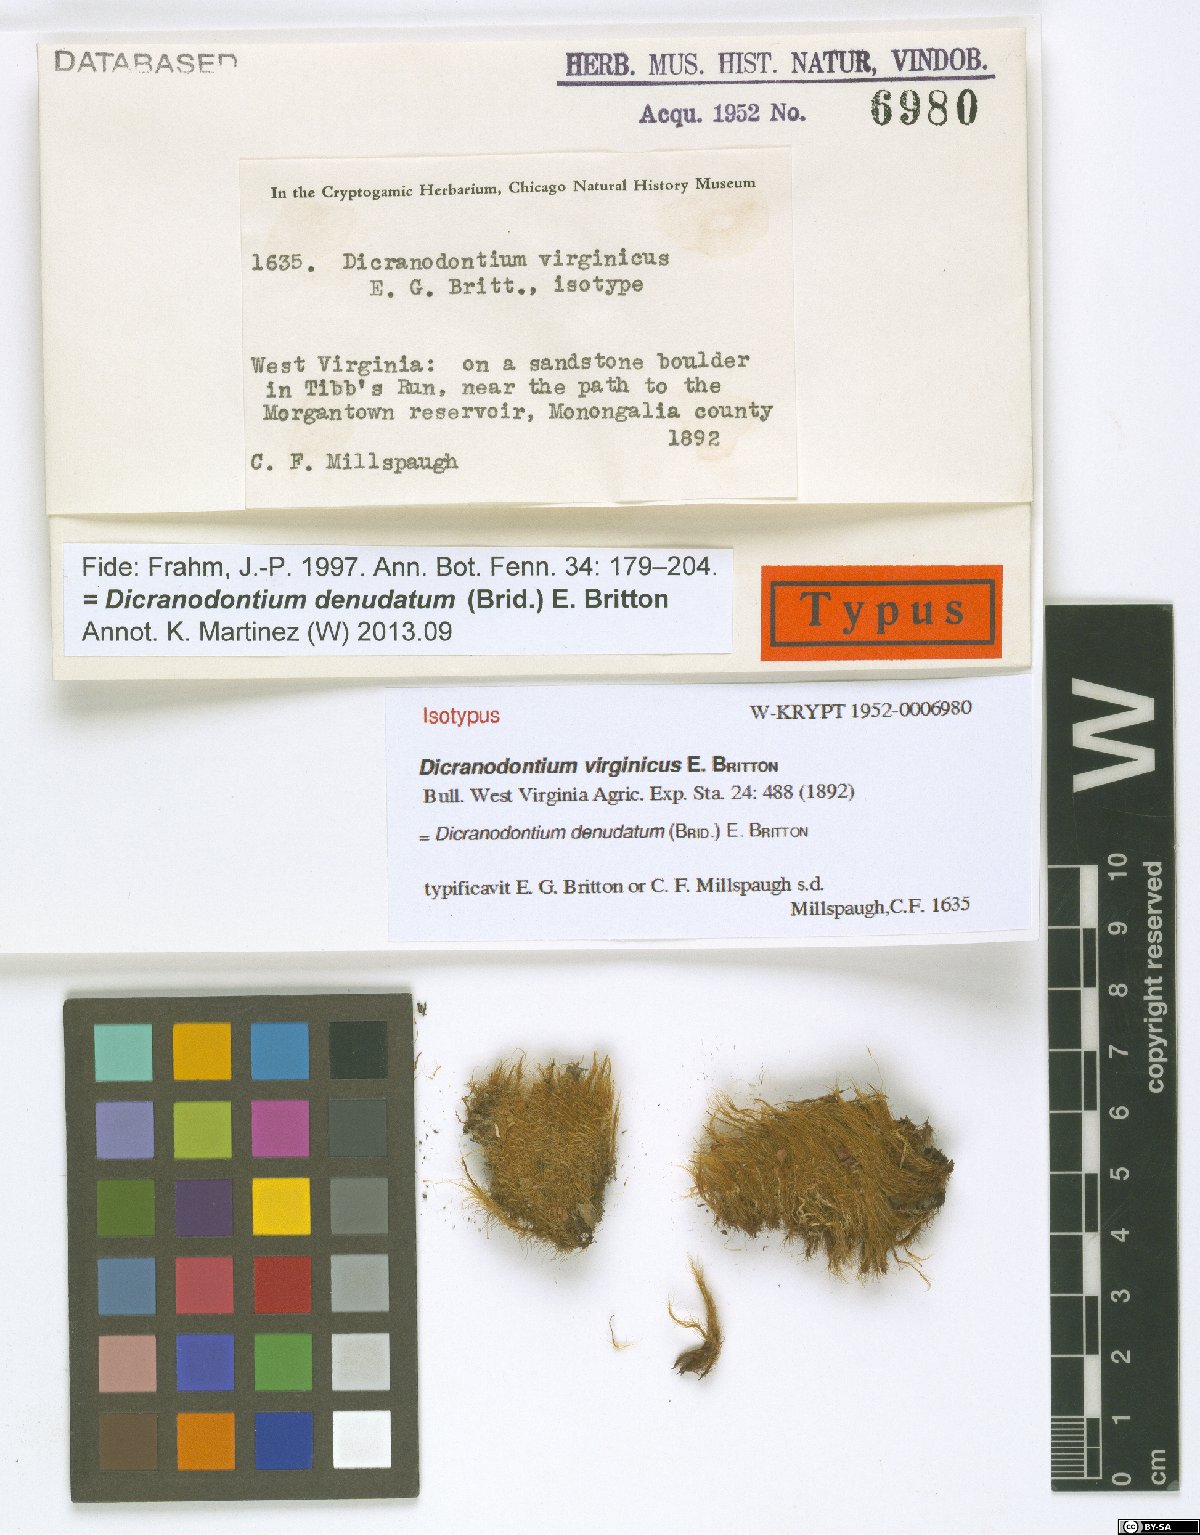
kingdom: Plantae
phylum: Bryophyta
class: Bryopsida
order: Dicranales
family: Leucobryaceae
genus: Dicranodontium
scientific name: Dicranodontium denudatum
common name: Beaked bow moss
